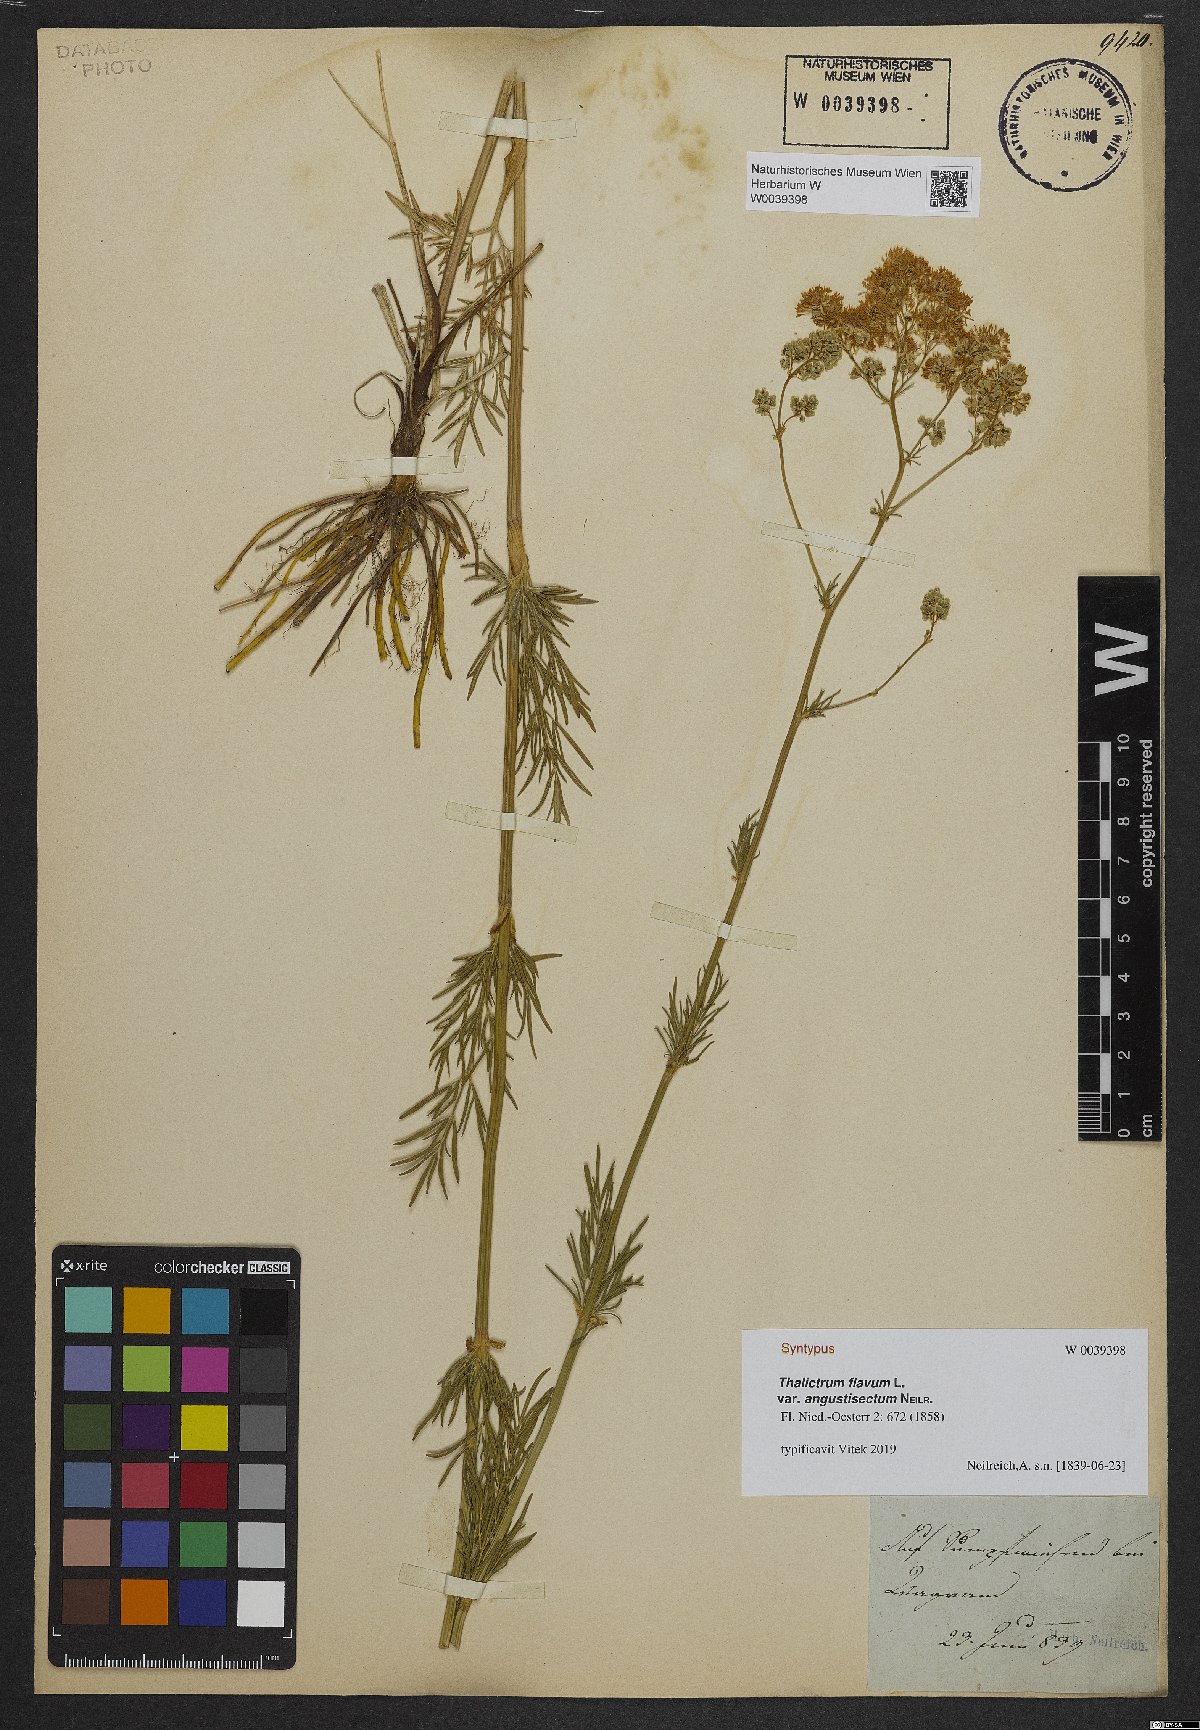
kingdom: Plantae
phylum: Tracheophyta
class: Magnoliopsida
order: Ranunculales
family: Ranunculaceae
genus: Thalictrum
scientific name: Thalictrum lucidum
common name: Shining meadow-rue
